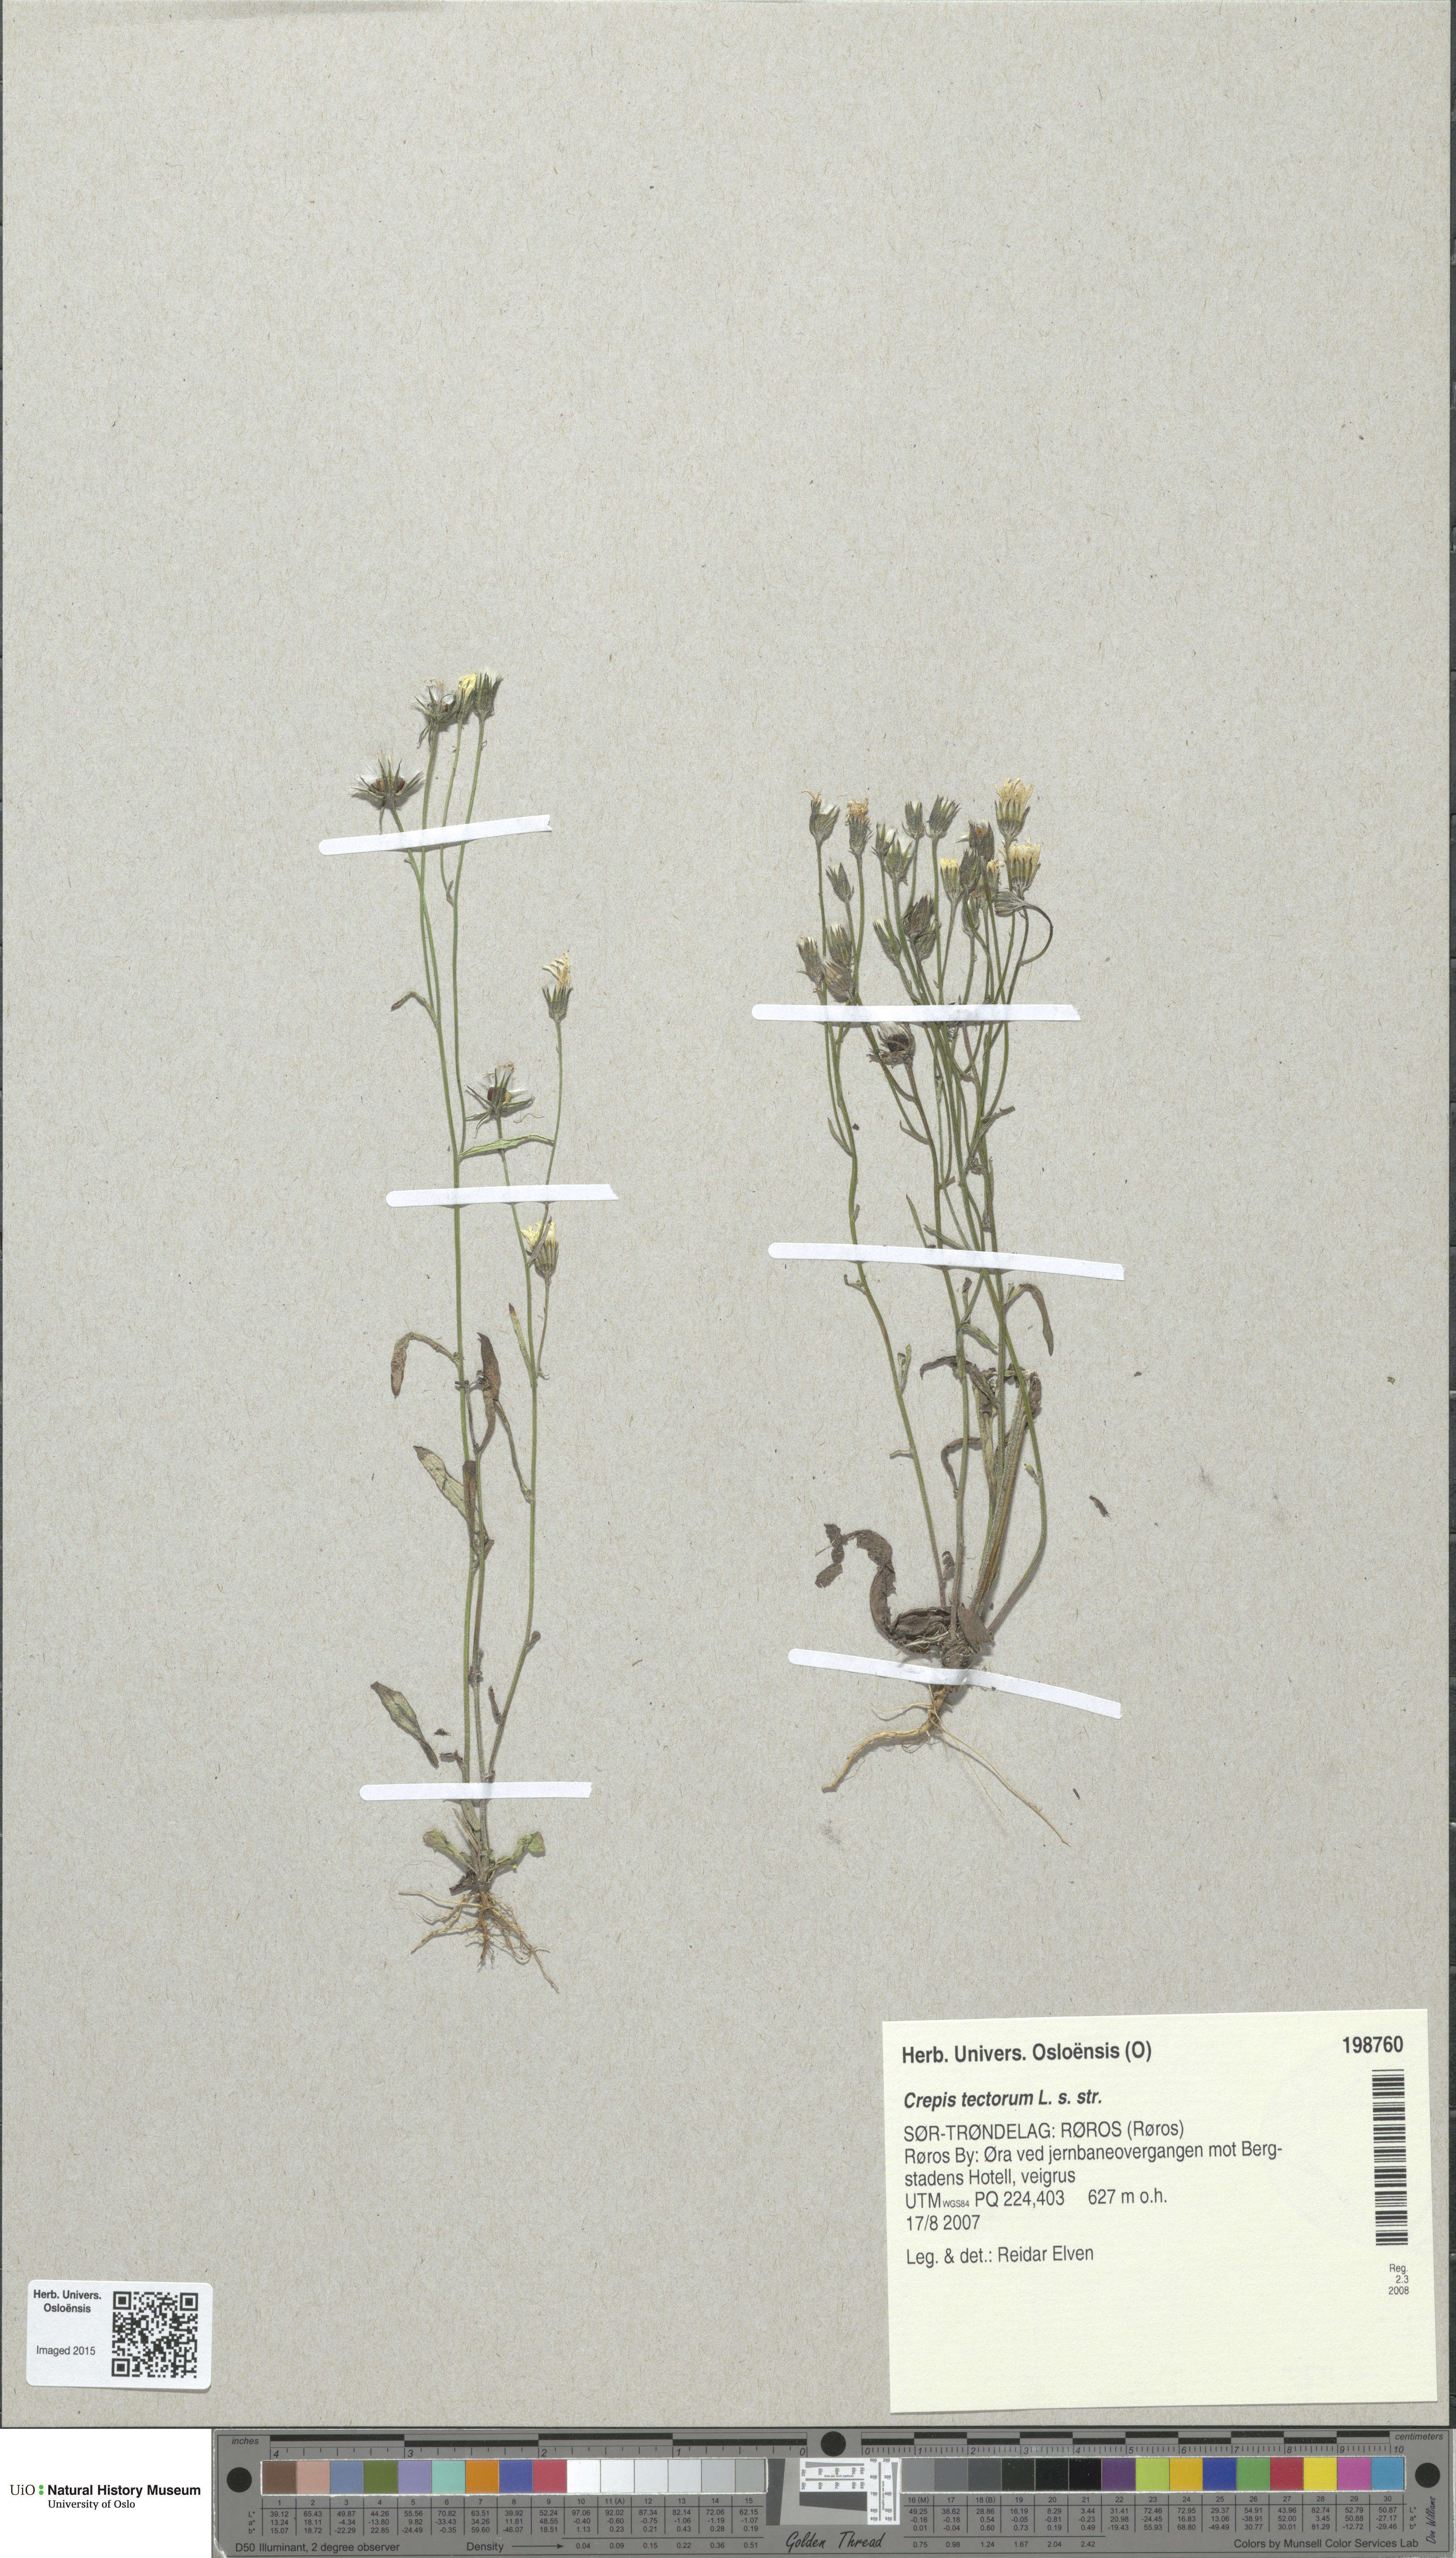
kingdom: Plantae
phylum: Tracheophyta
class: Magnoliopsida
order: Asterales
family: Asteraceae
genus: Crepis
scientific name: Crepis tectorum
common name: Narrow-leaved hawk's-beard
